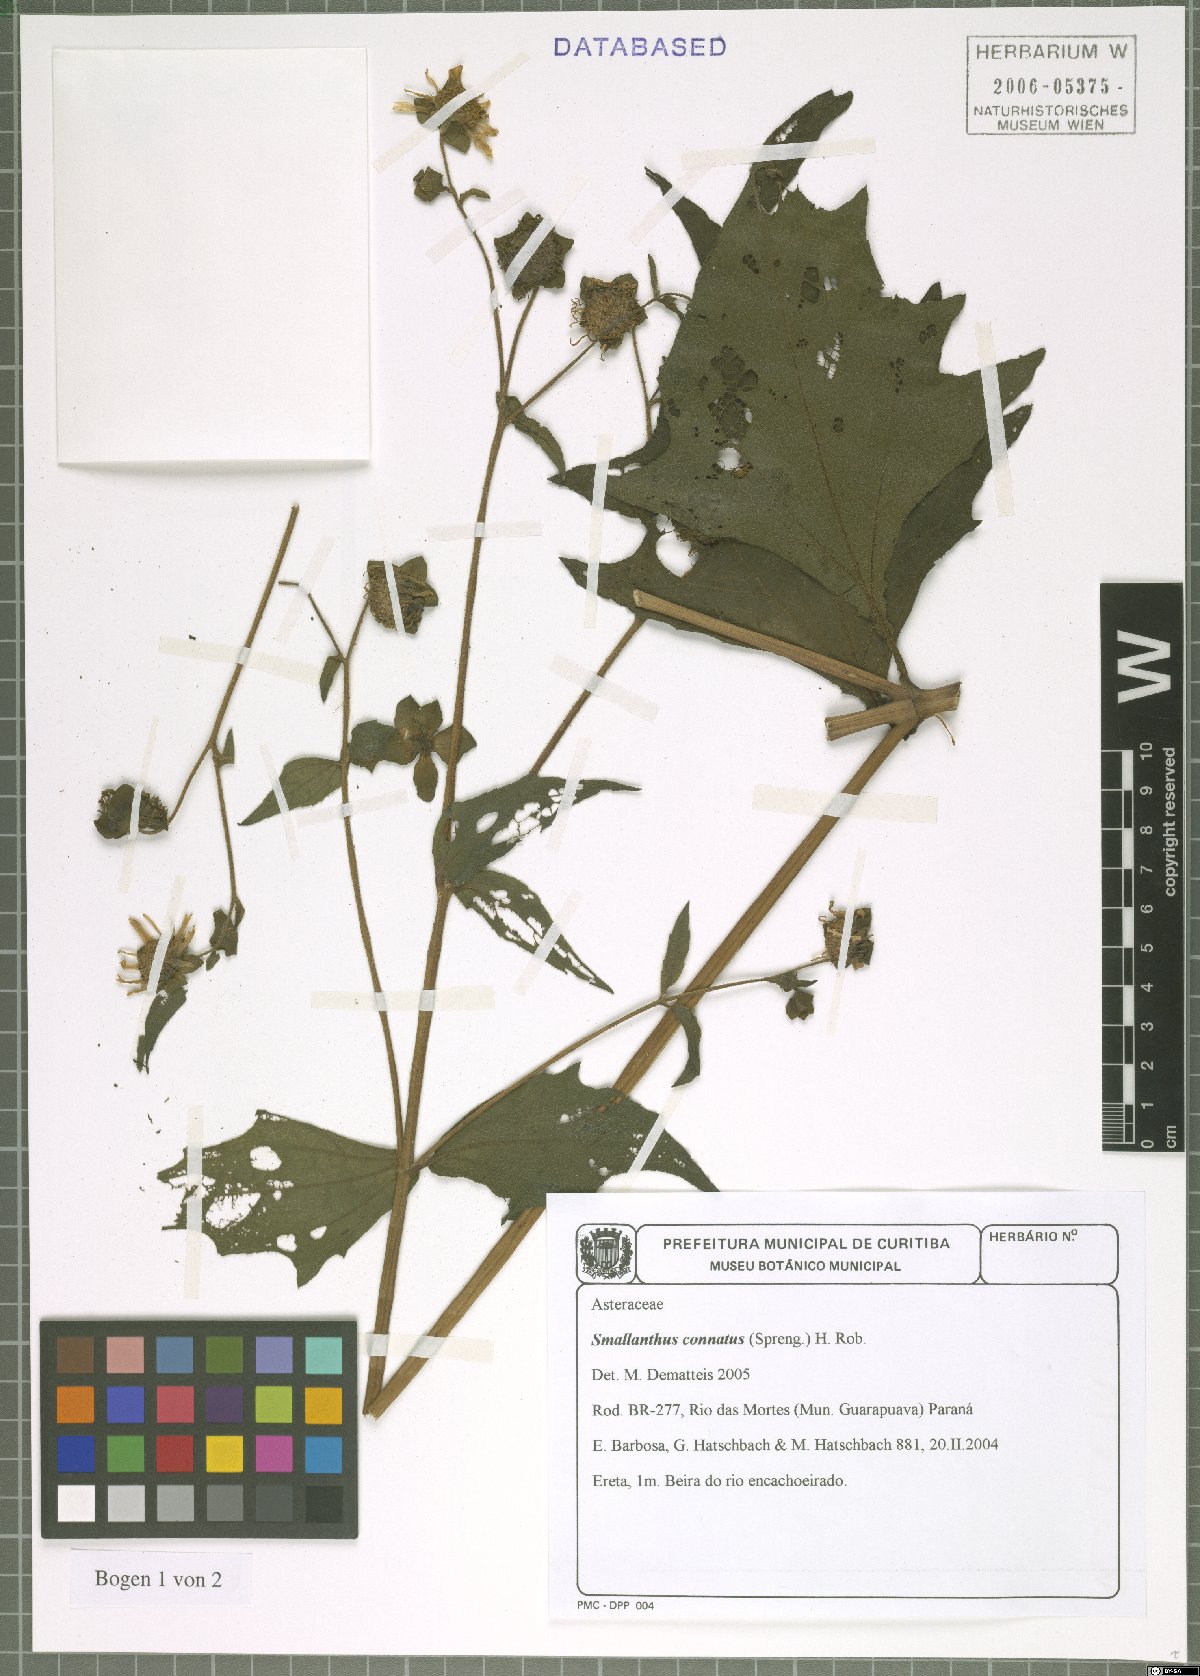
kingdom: Plantae
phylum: Tracheophyta
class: Magnoliopsida
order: Asterales
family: Asteraceae
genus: Smallanthus
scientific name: Smallanthus connatus
